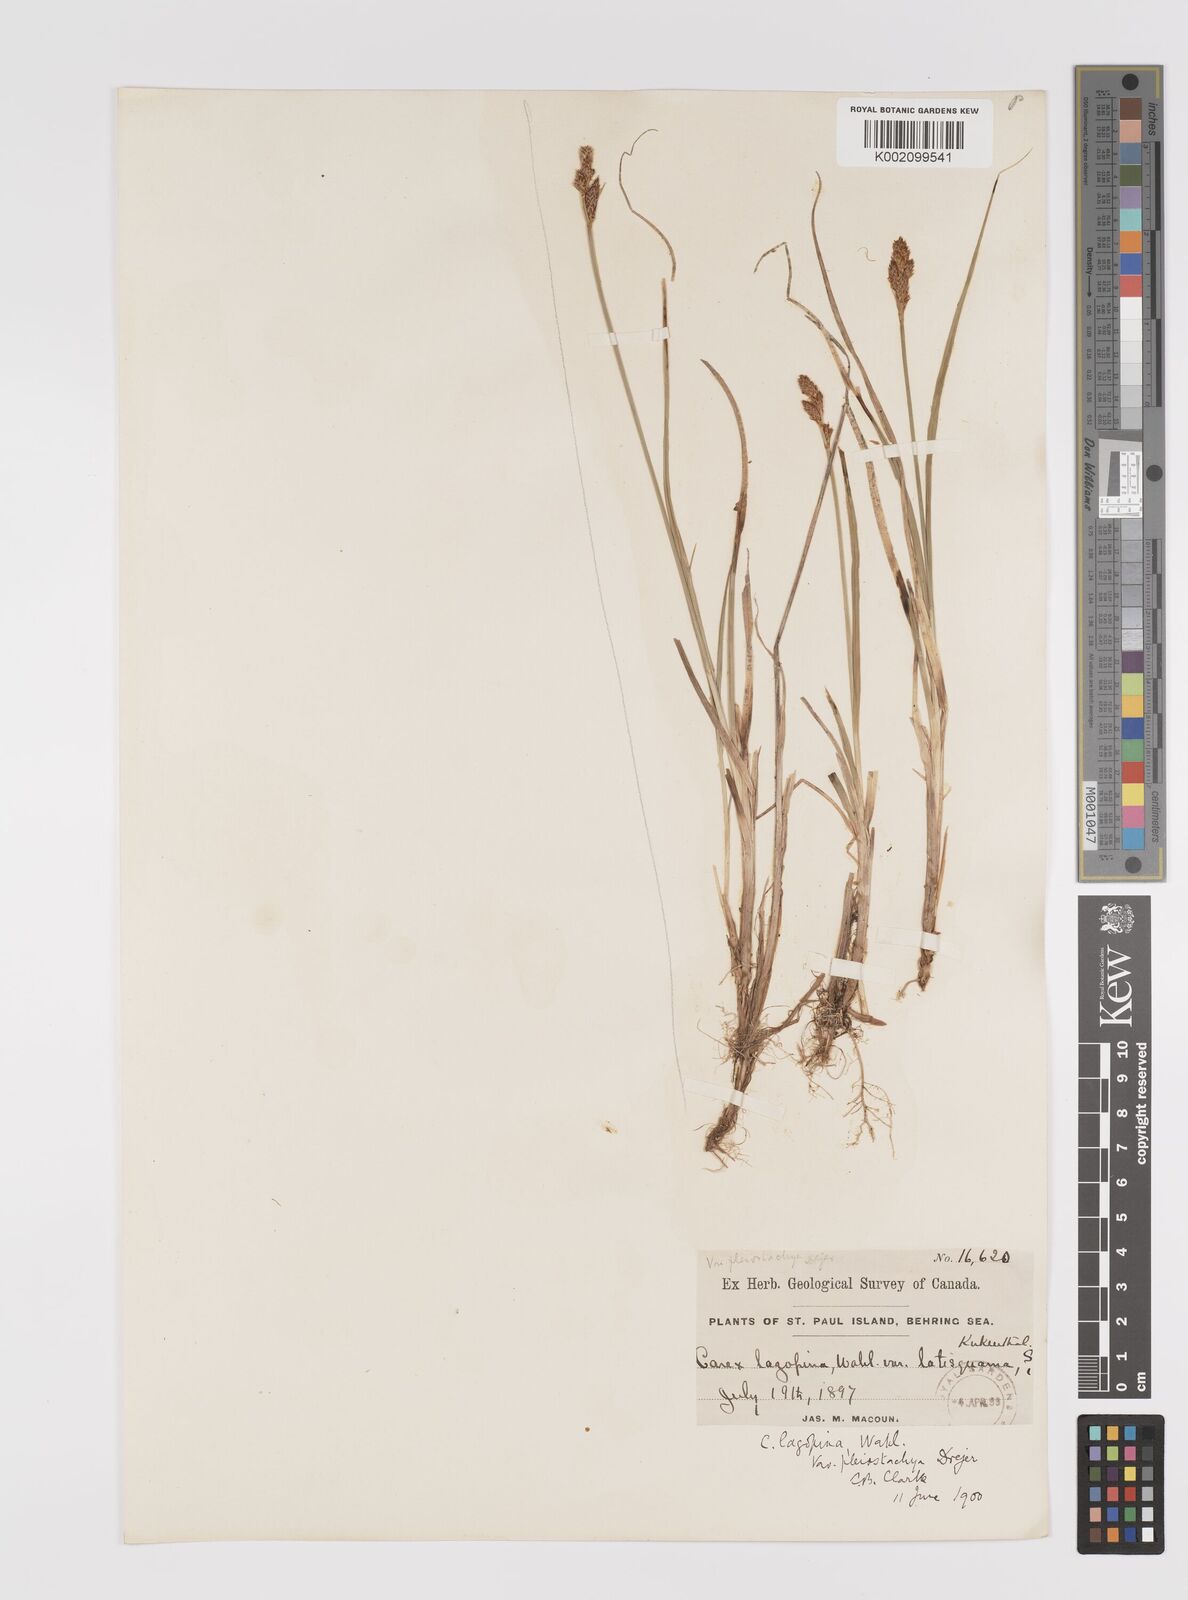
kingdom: Plantae
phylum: Tracheophyta
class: Liliopsida
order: Poales
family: Cyperaceae
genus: Carex
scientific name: Carex lachenalii
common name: Hare's-foot sedge
